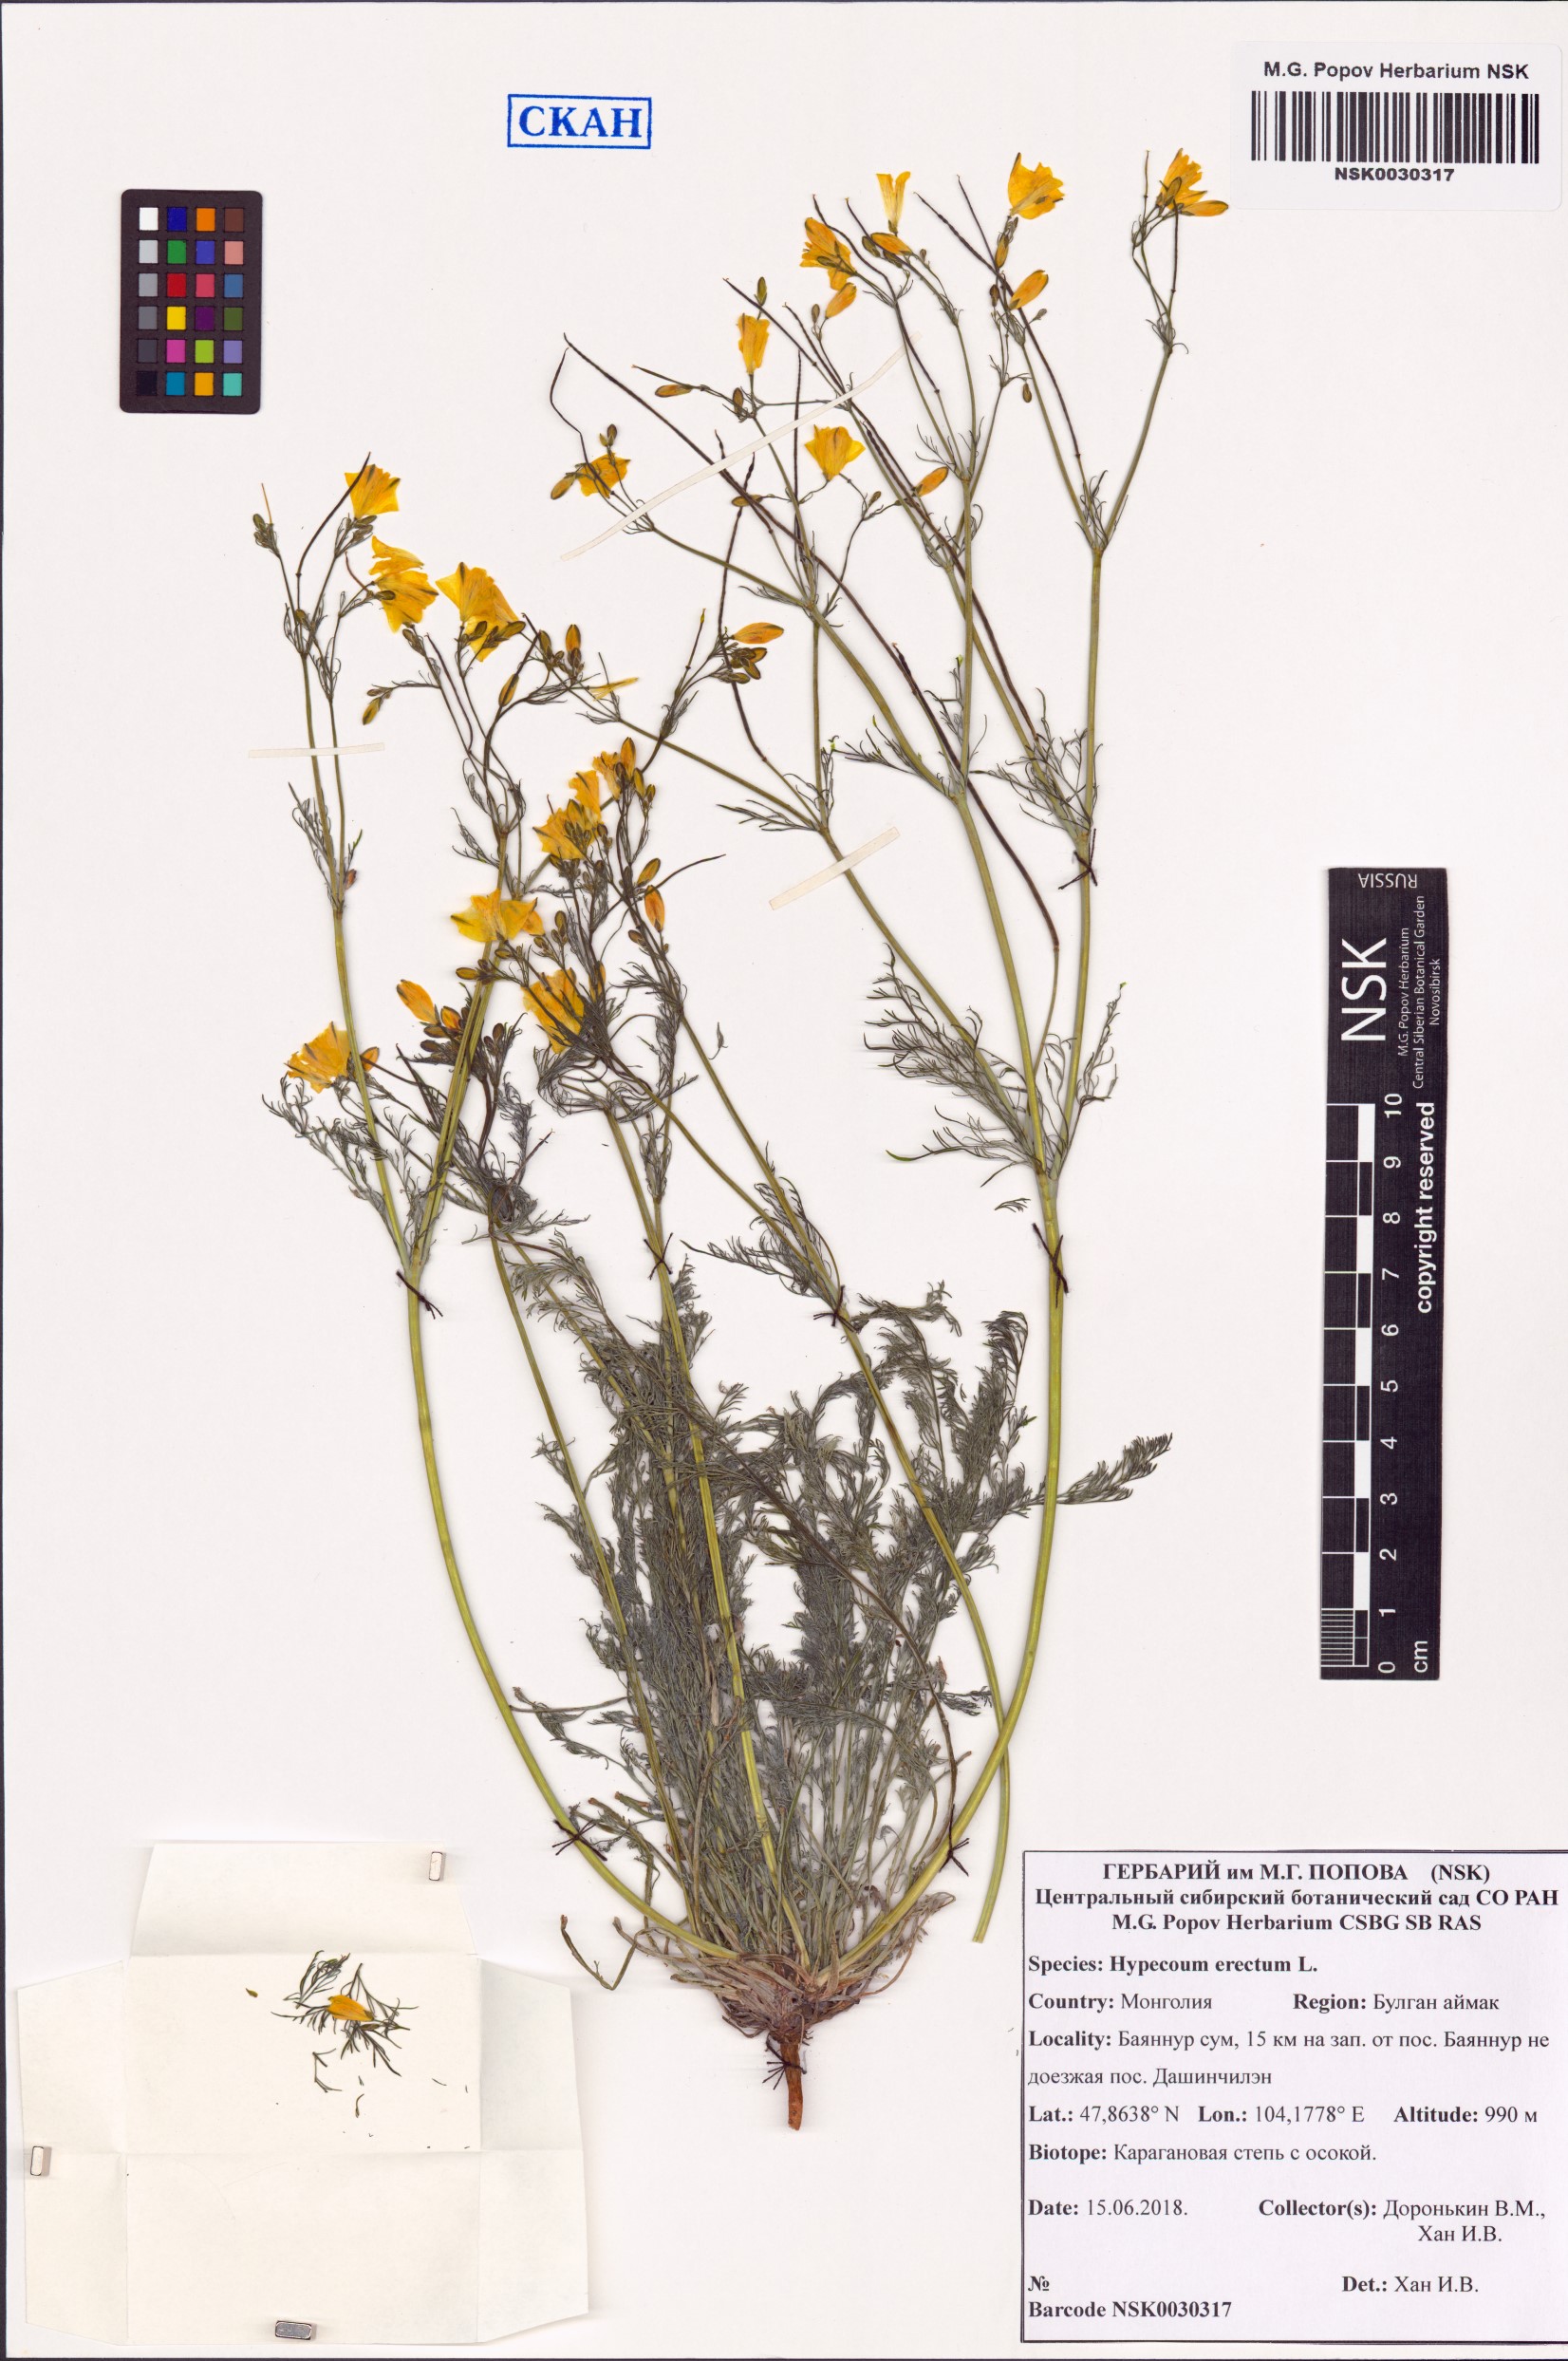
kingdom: Plantae
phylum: Tracheophyta
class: Magnoliopsida
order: Ranunculales
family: Papaveraceae
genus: Hypecoum
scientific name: Hypecoum erectum
